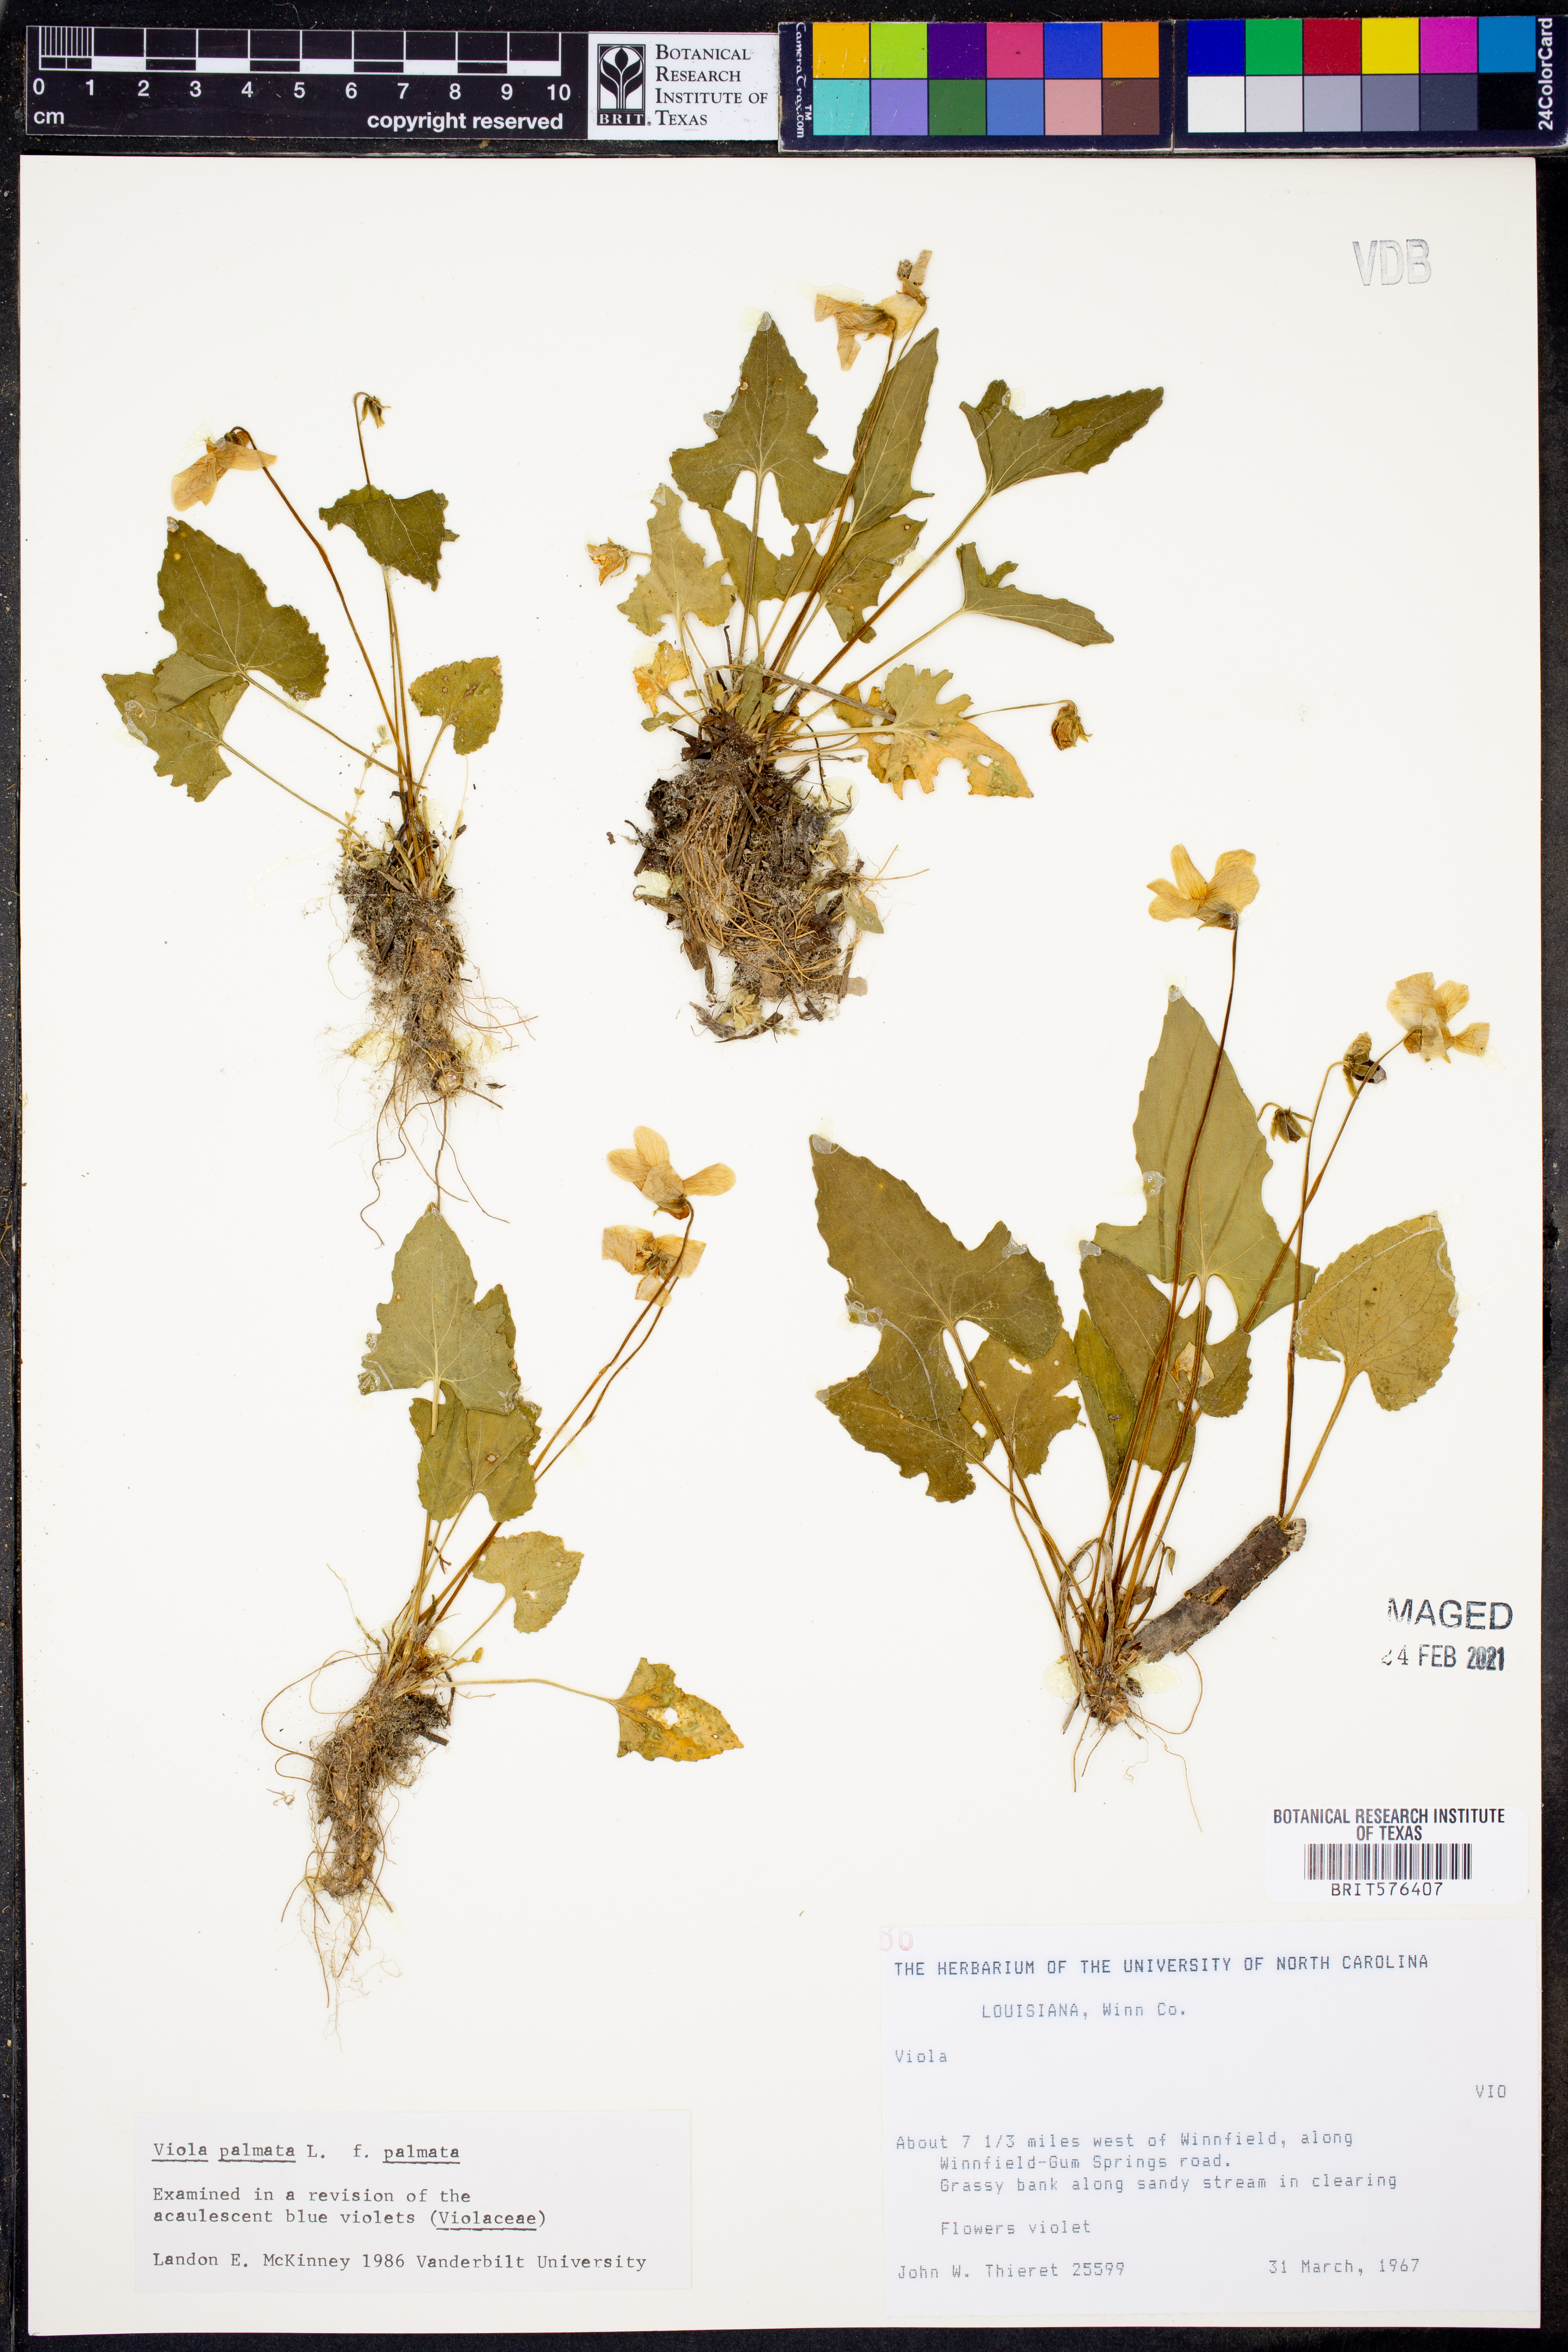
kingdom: Plantae
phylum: Tracheophyta
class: Magnoliopsida
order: Malpighiales
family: Violaceae
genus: Viola
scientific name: Viola palmata
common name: Early blue violet
